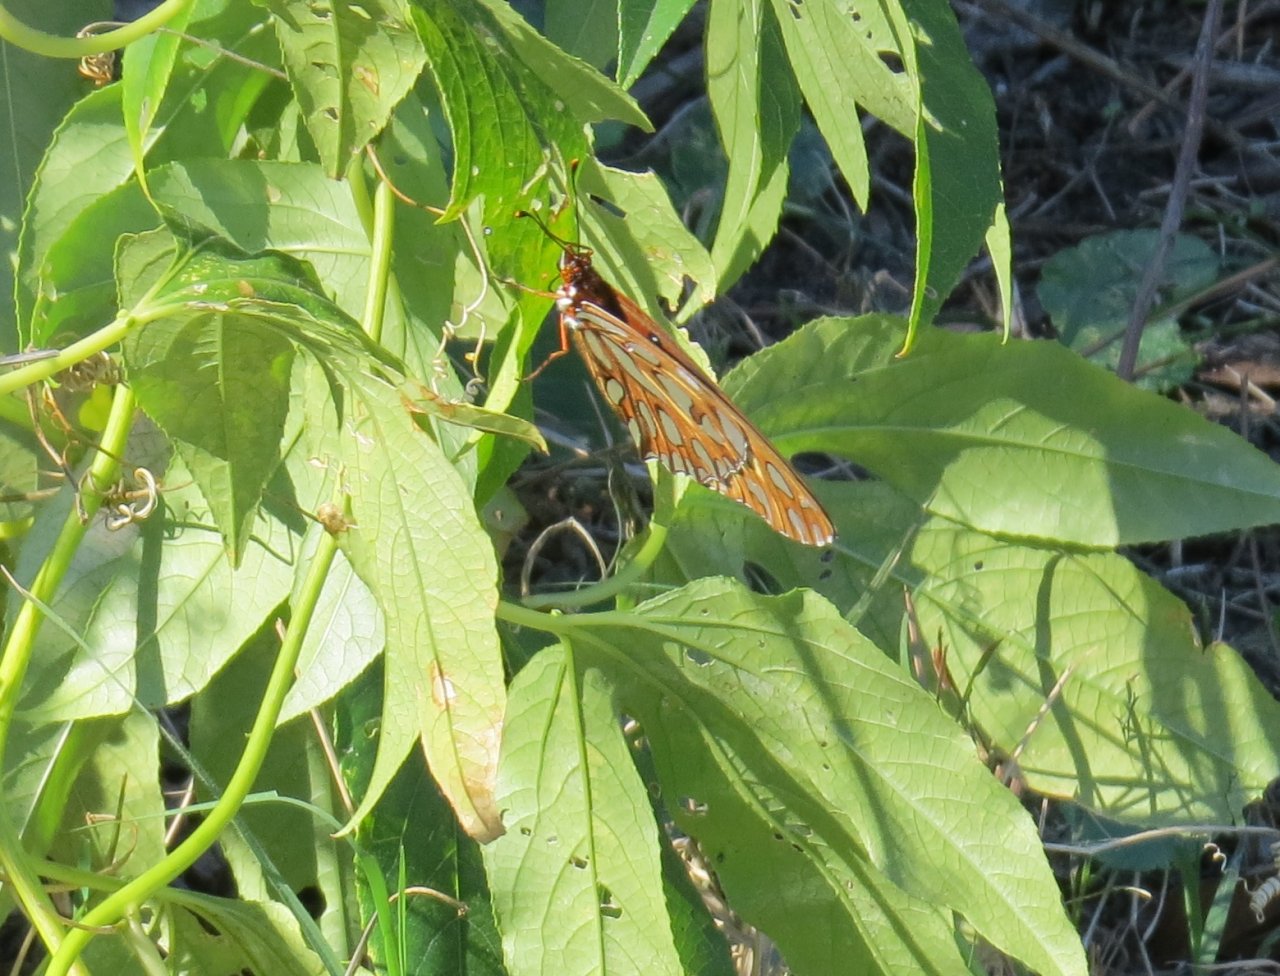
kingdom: Animalia
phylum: Arthropoda
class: Insecta
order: Lepidoptera
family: Nymphalidae
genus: Dione
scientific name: Dione vanillae
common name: Gulf Fritillary
